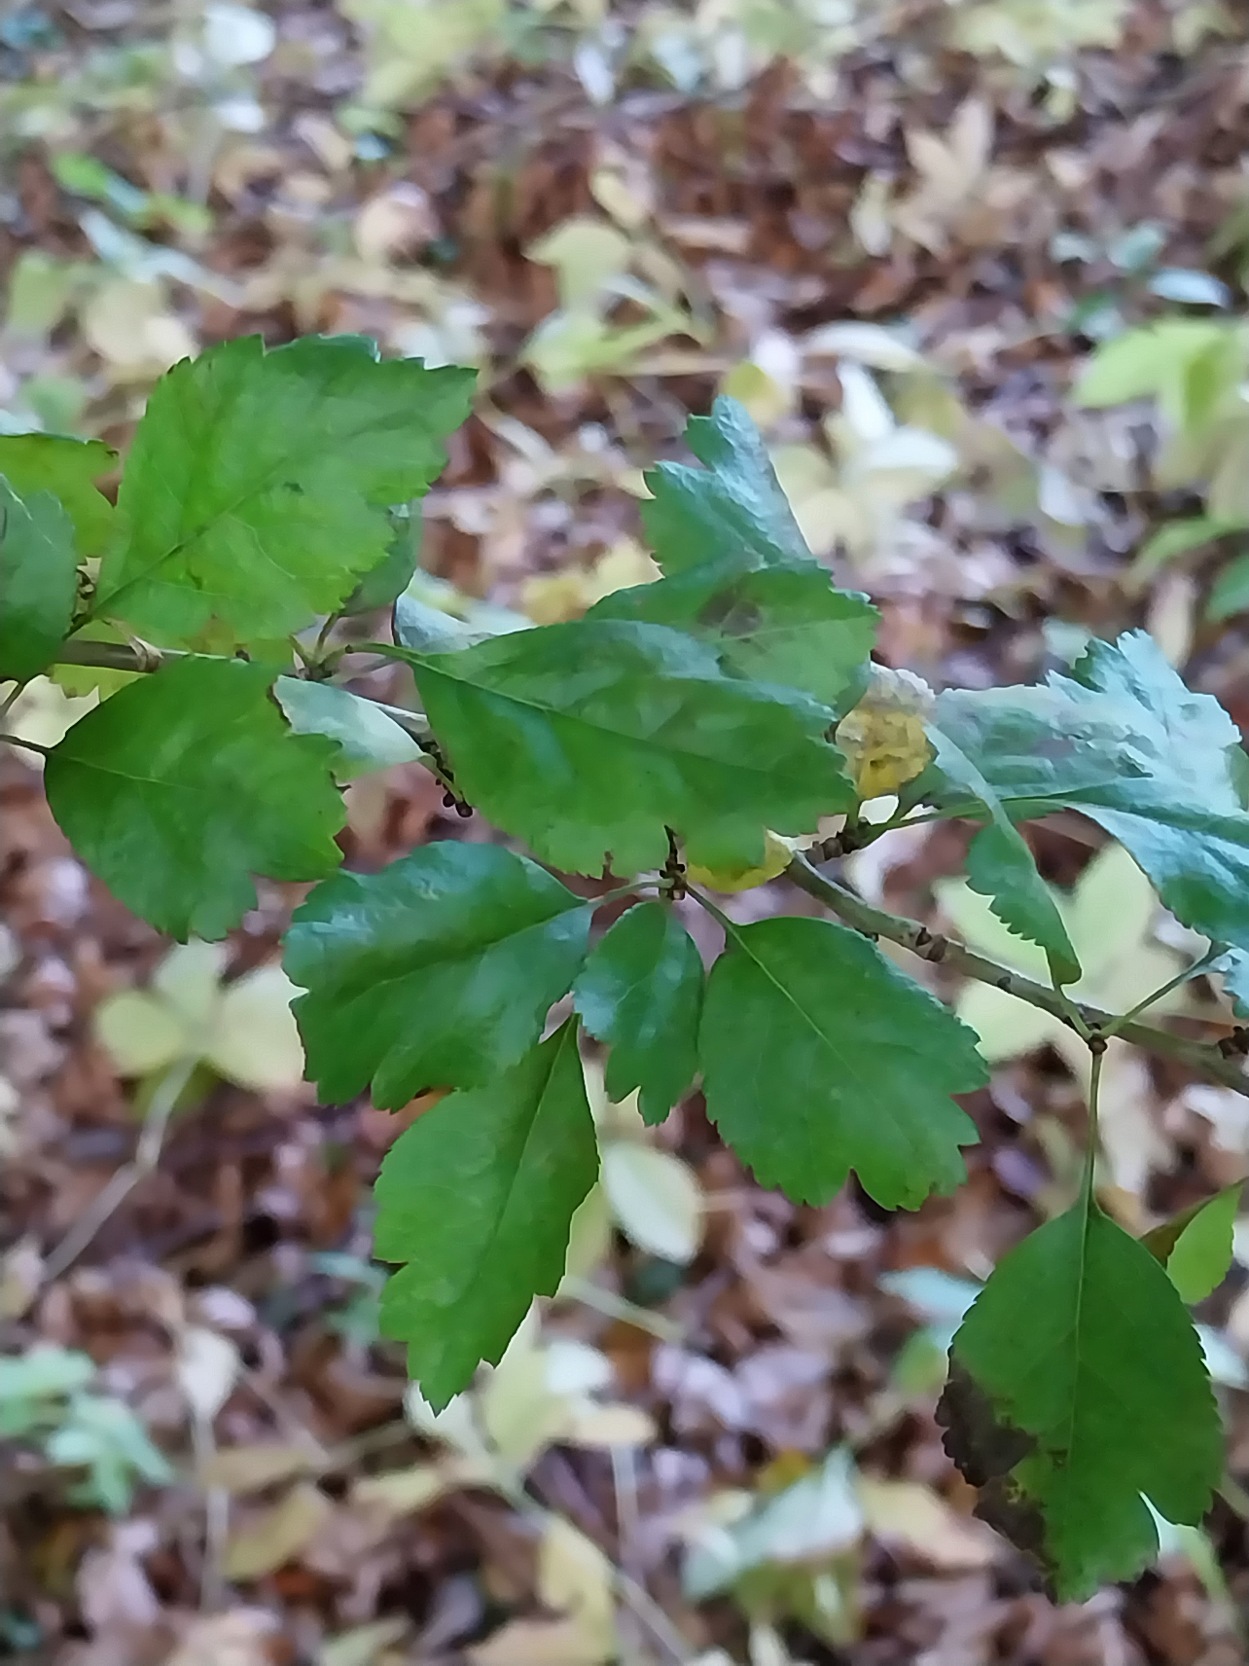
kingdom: Plantae
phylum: Tracheophyta
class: Magnoliopsida
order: Rosales
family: Rosaceae
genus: Crataegus
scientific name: Crataegus laevigata
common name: Almindelig hvidtjørn
